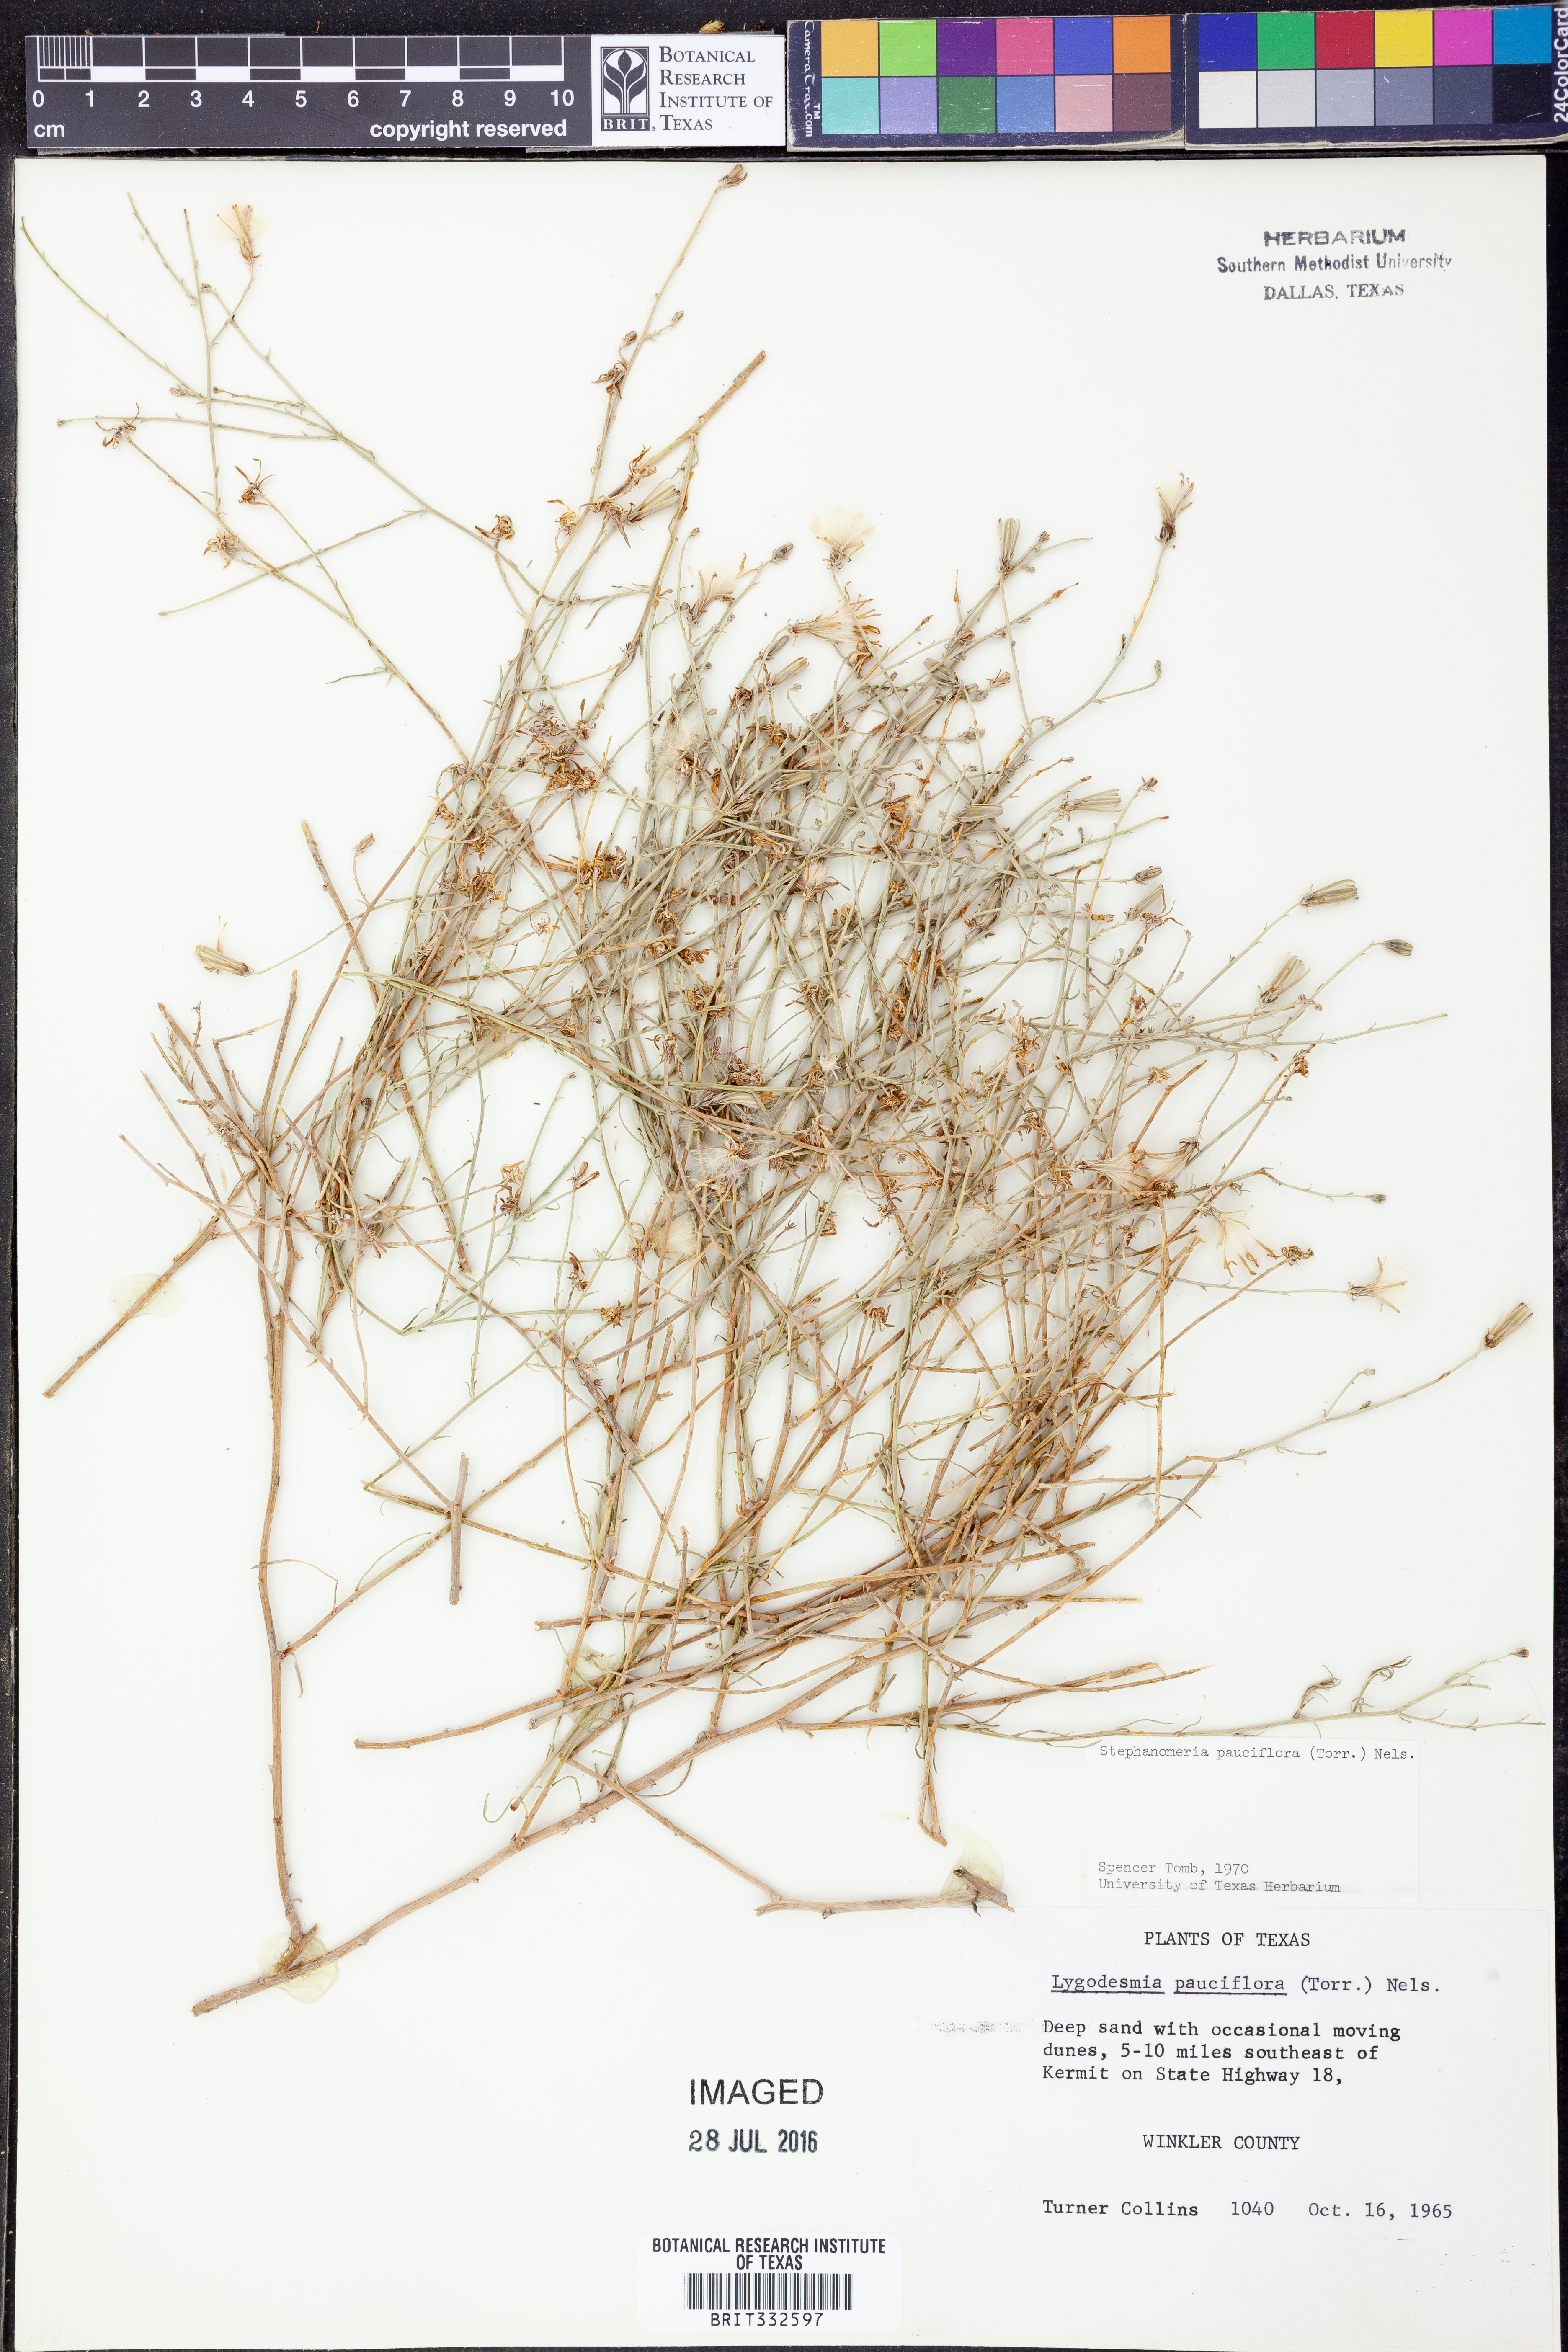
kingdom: Plantae
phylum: Tracheophyta
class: Magnoliopsida
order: Asterales
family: Asteraceae
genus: Stephanomeria
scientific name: Stephanomeria pauciflora
